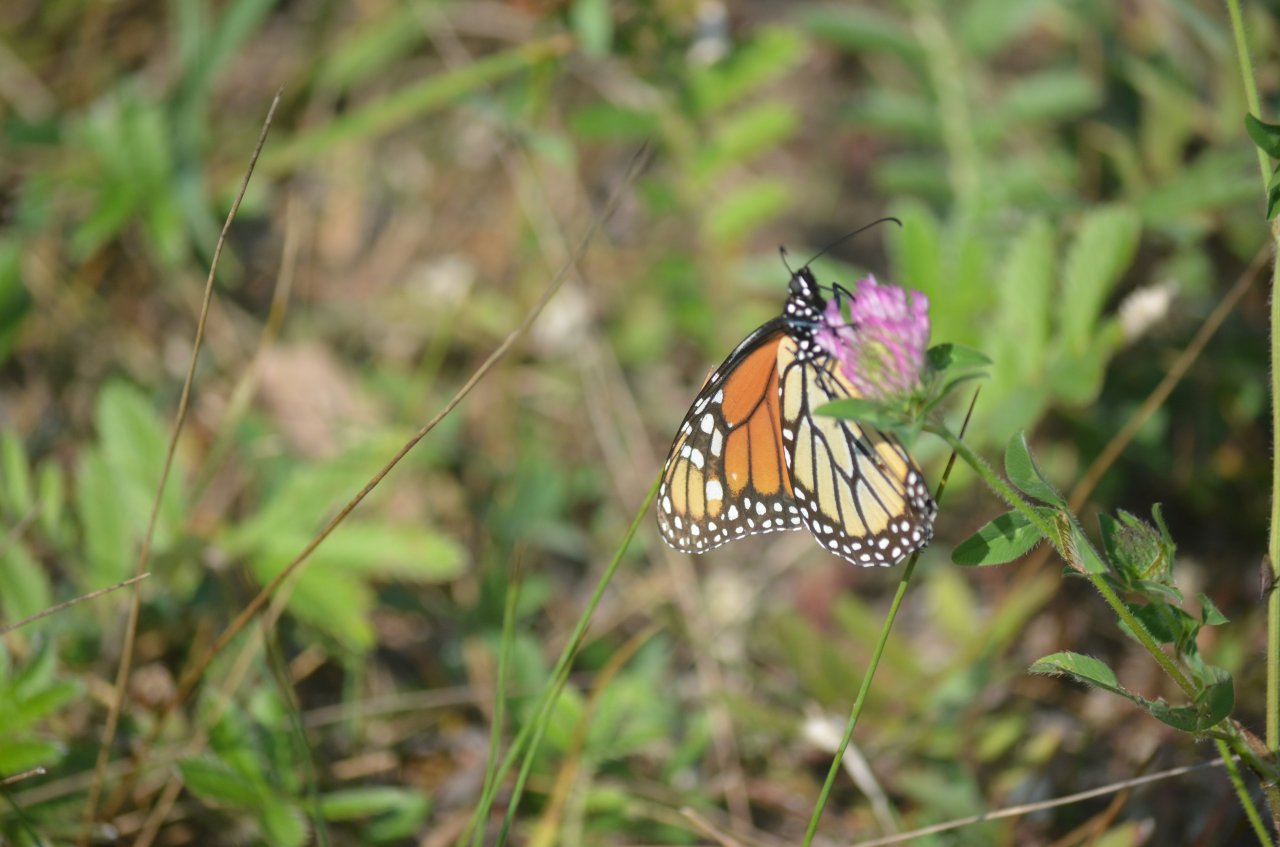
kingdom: Animalia
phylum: Arthropoda
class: Insecta
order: Lepidoptera
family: Nymphalidae
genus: Danaus
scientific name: Danaus plexippus
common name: Monarch
